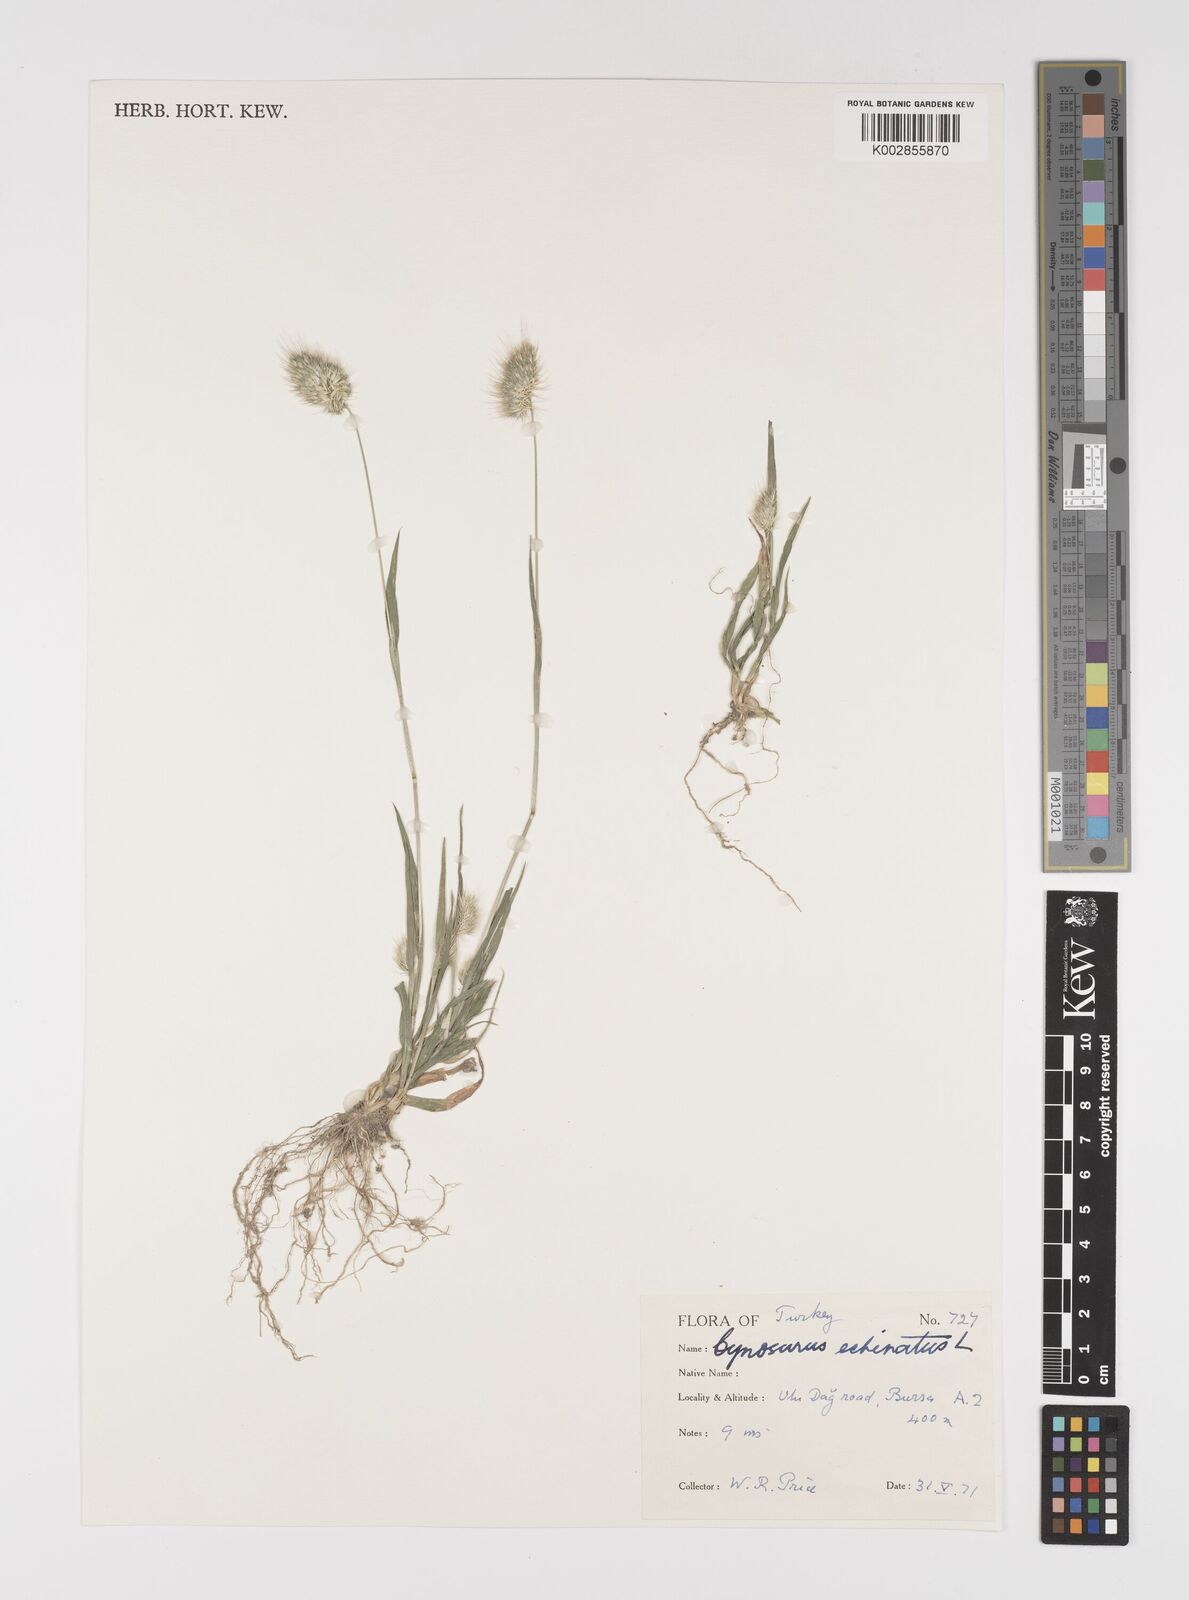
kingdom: Plantae
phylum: Tracheophyta
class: Liliopsida
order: Poales
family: Poaceae
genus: Cynosurus
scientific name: Cynosurus echinatus
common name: Rough dog's-tail
